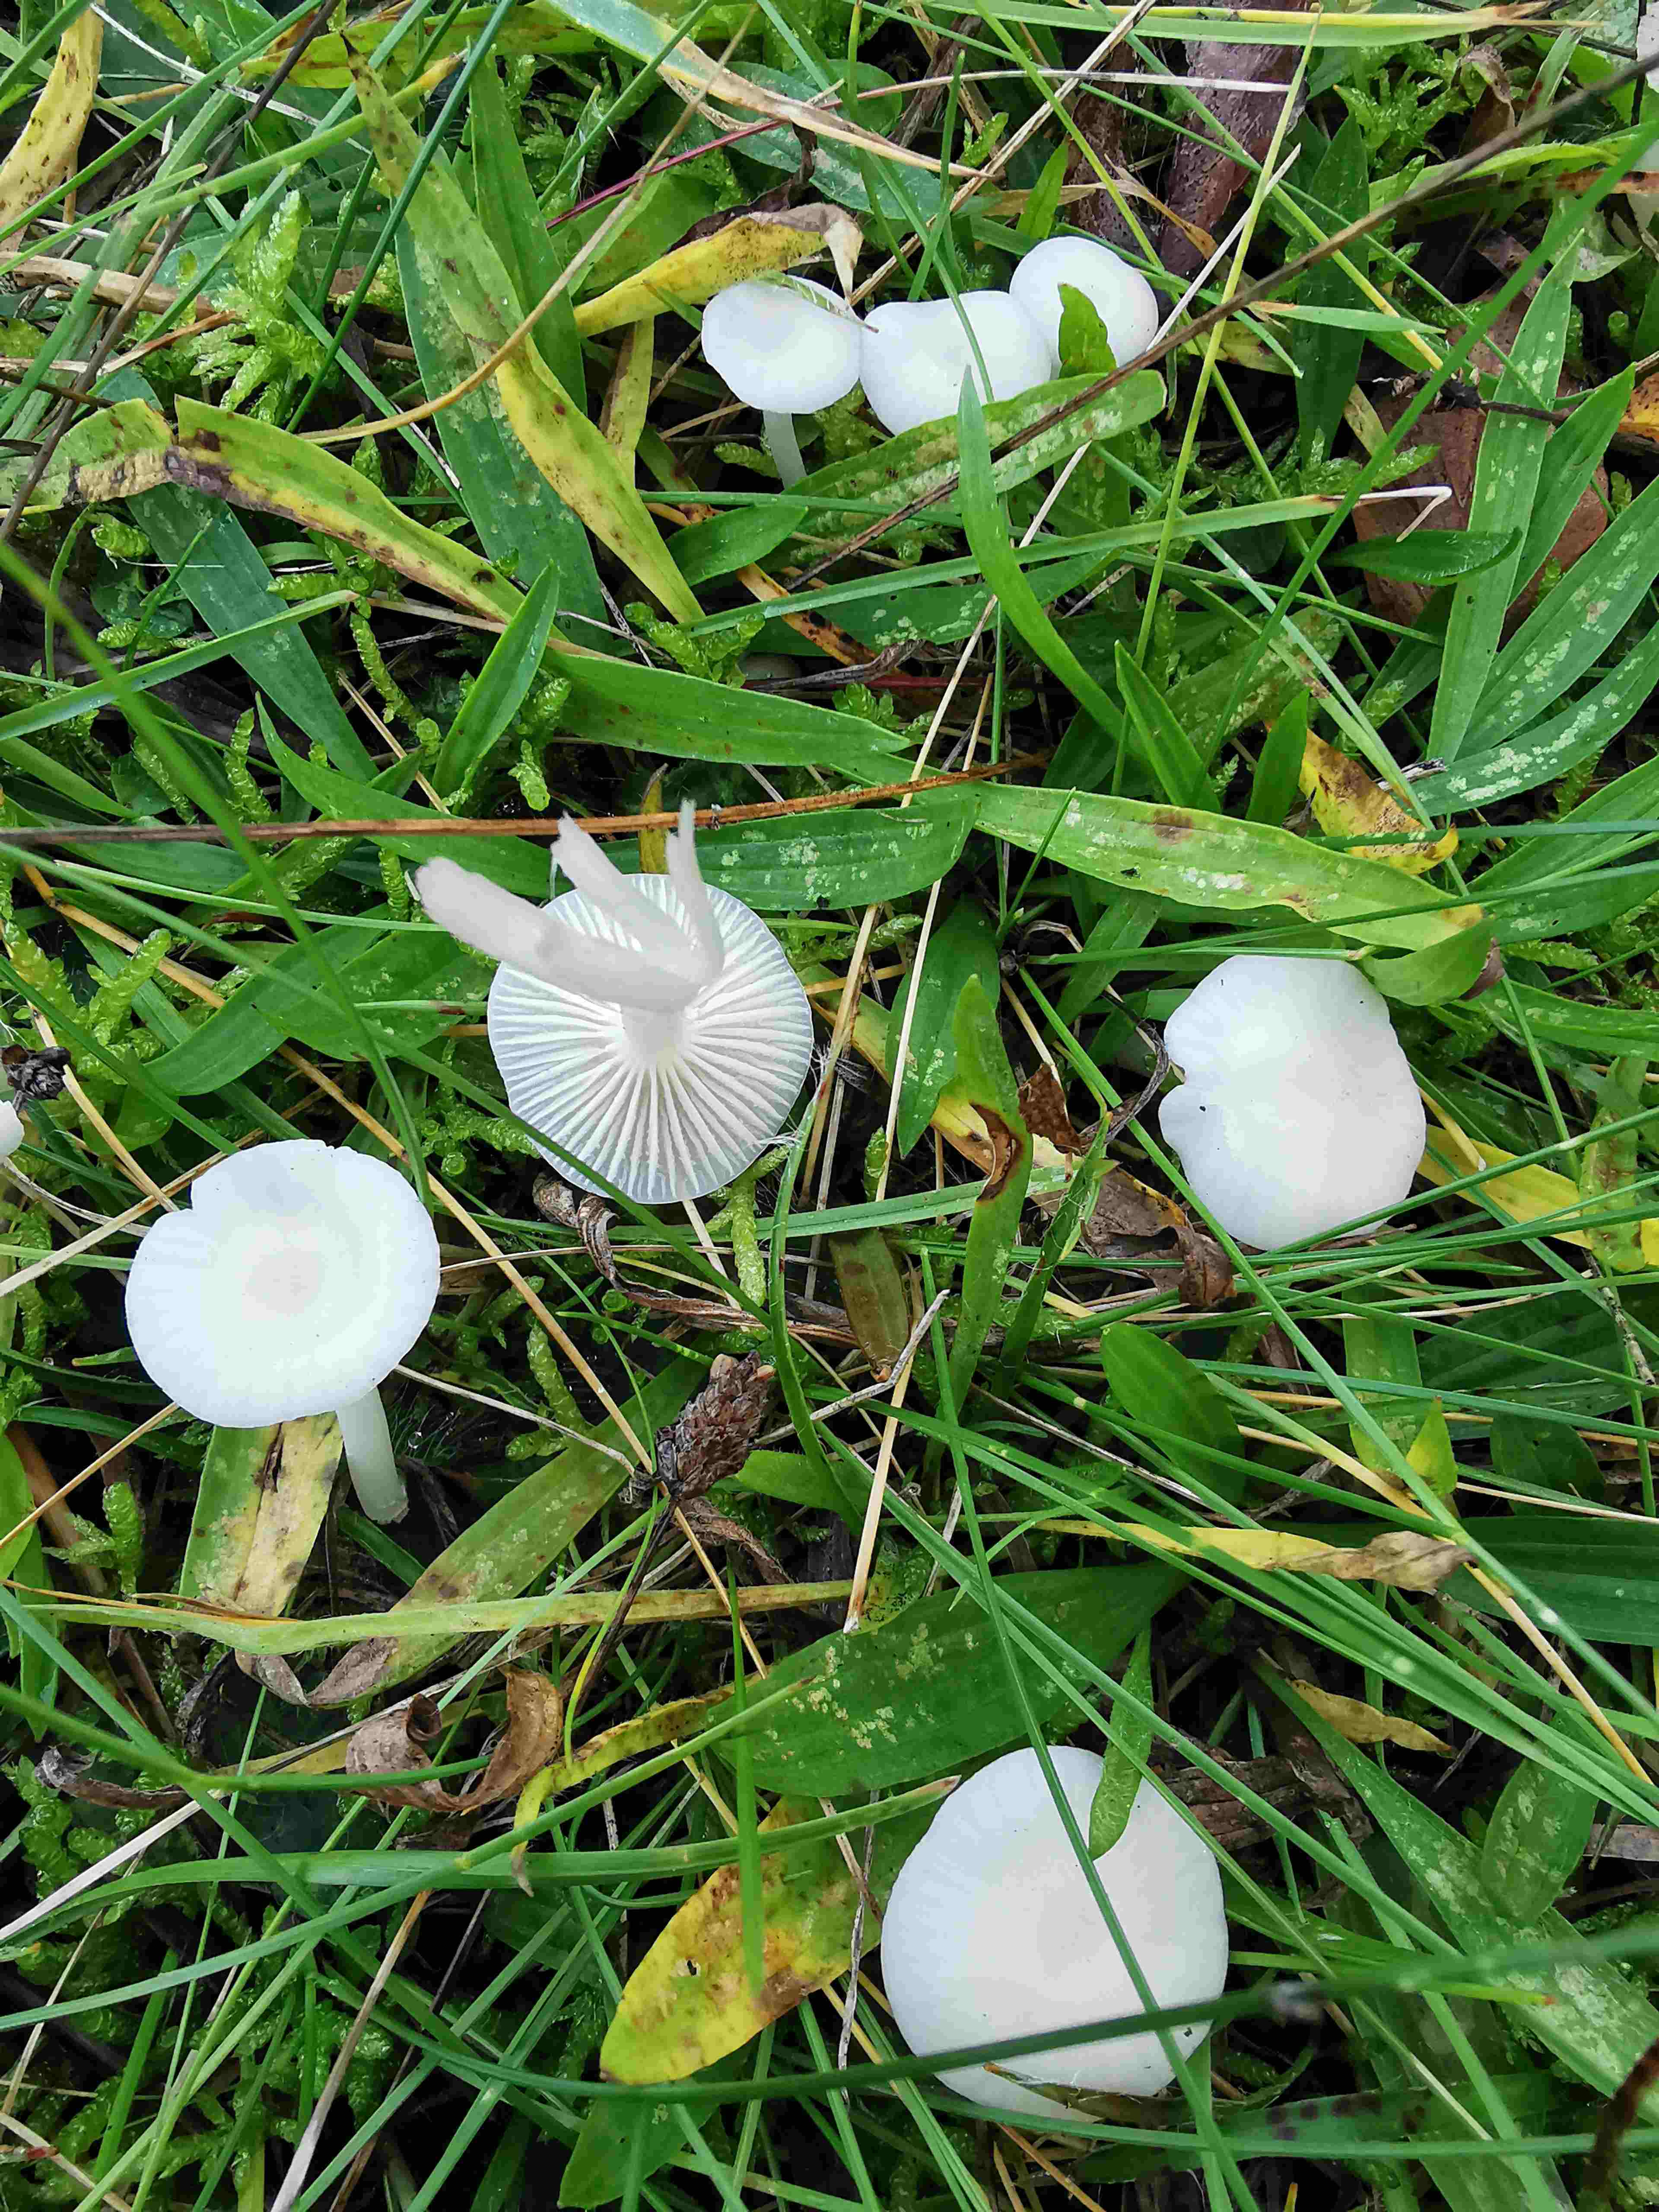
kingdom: Fungi
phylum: Basidiomycota
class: Agaricomycetes
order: Agaricales
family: Hygrophoraceae
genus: Cuphophyllus
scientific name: Cuphophyllus virgineus
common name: snehvid vokshat
